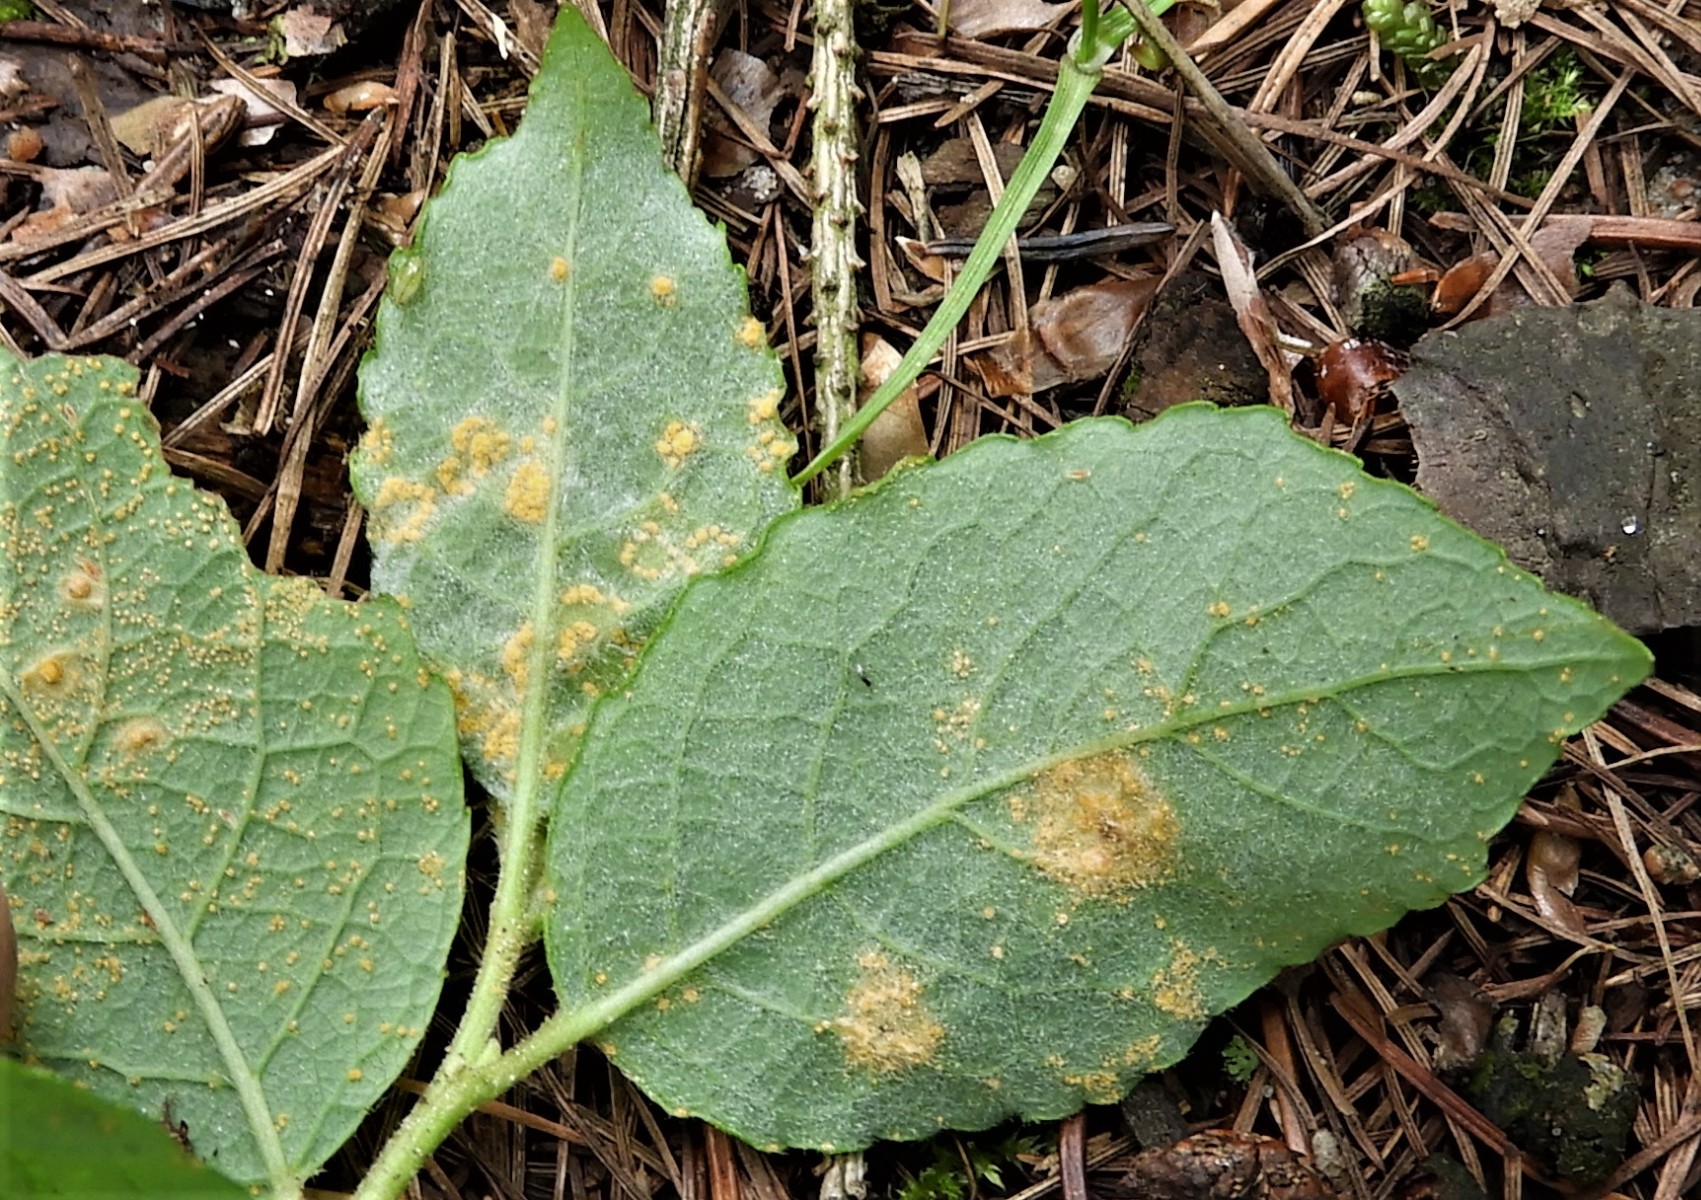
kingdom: Fungi
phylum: Basidiomycota
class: Pucciniomycetes
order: Pucciniales
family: Melampsoraceae
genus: Melampsora
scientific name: Melampsora
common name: skorperust
